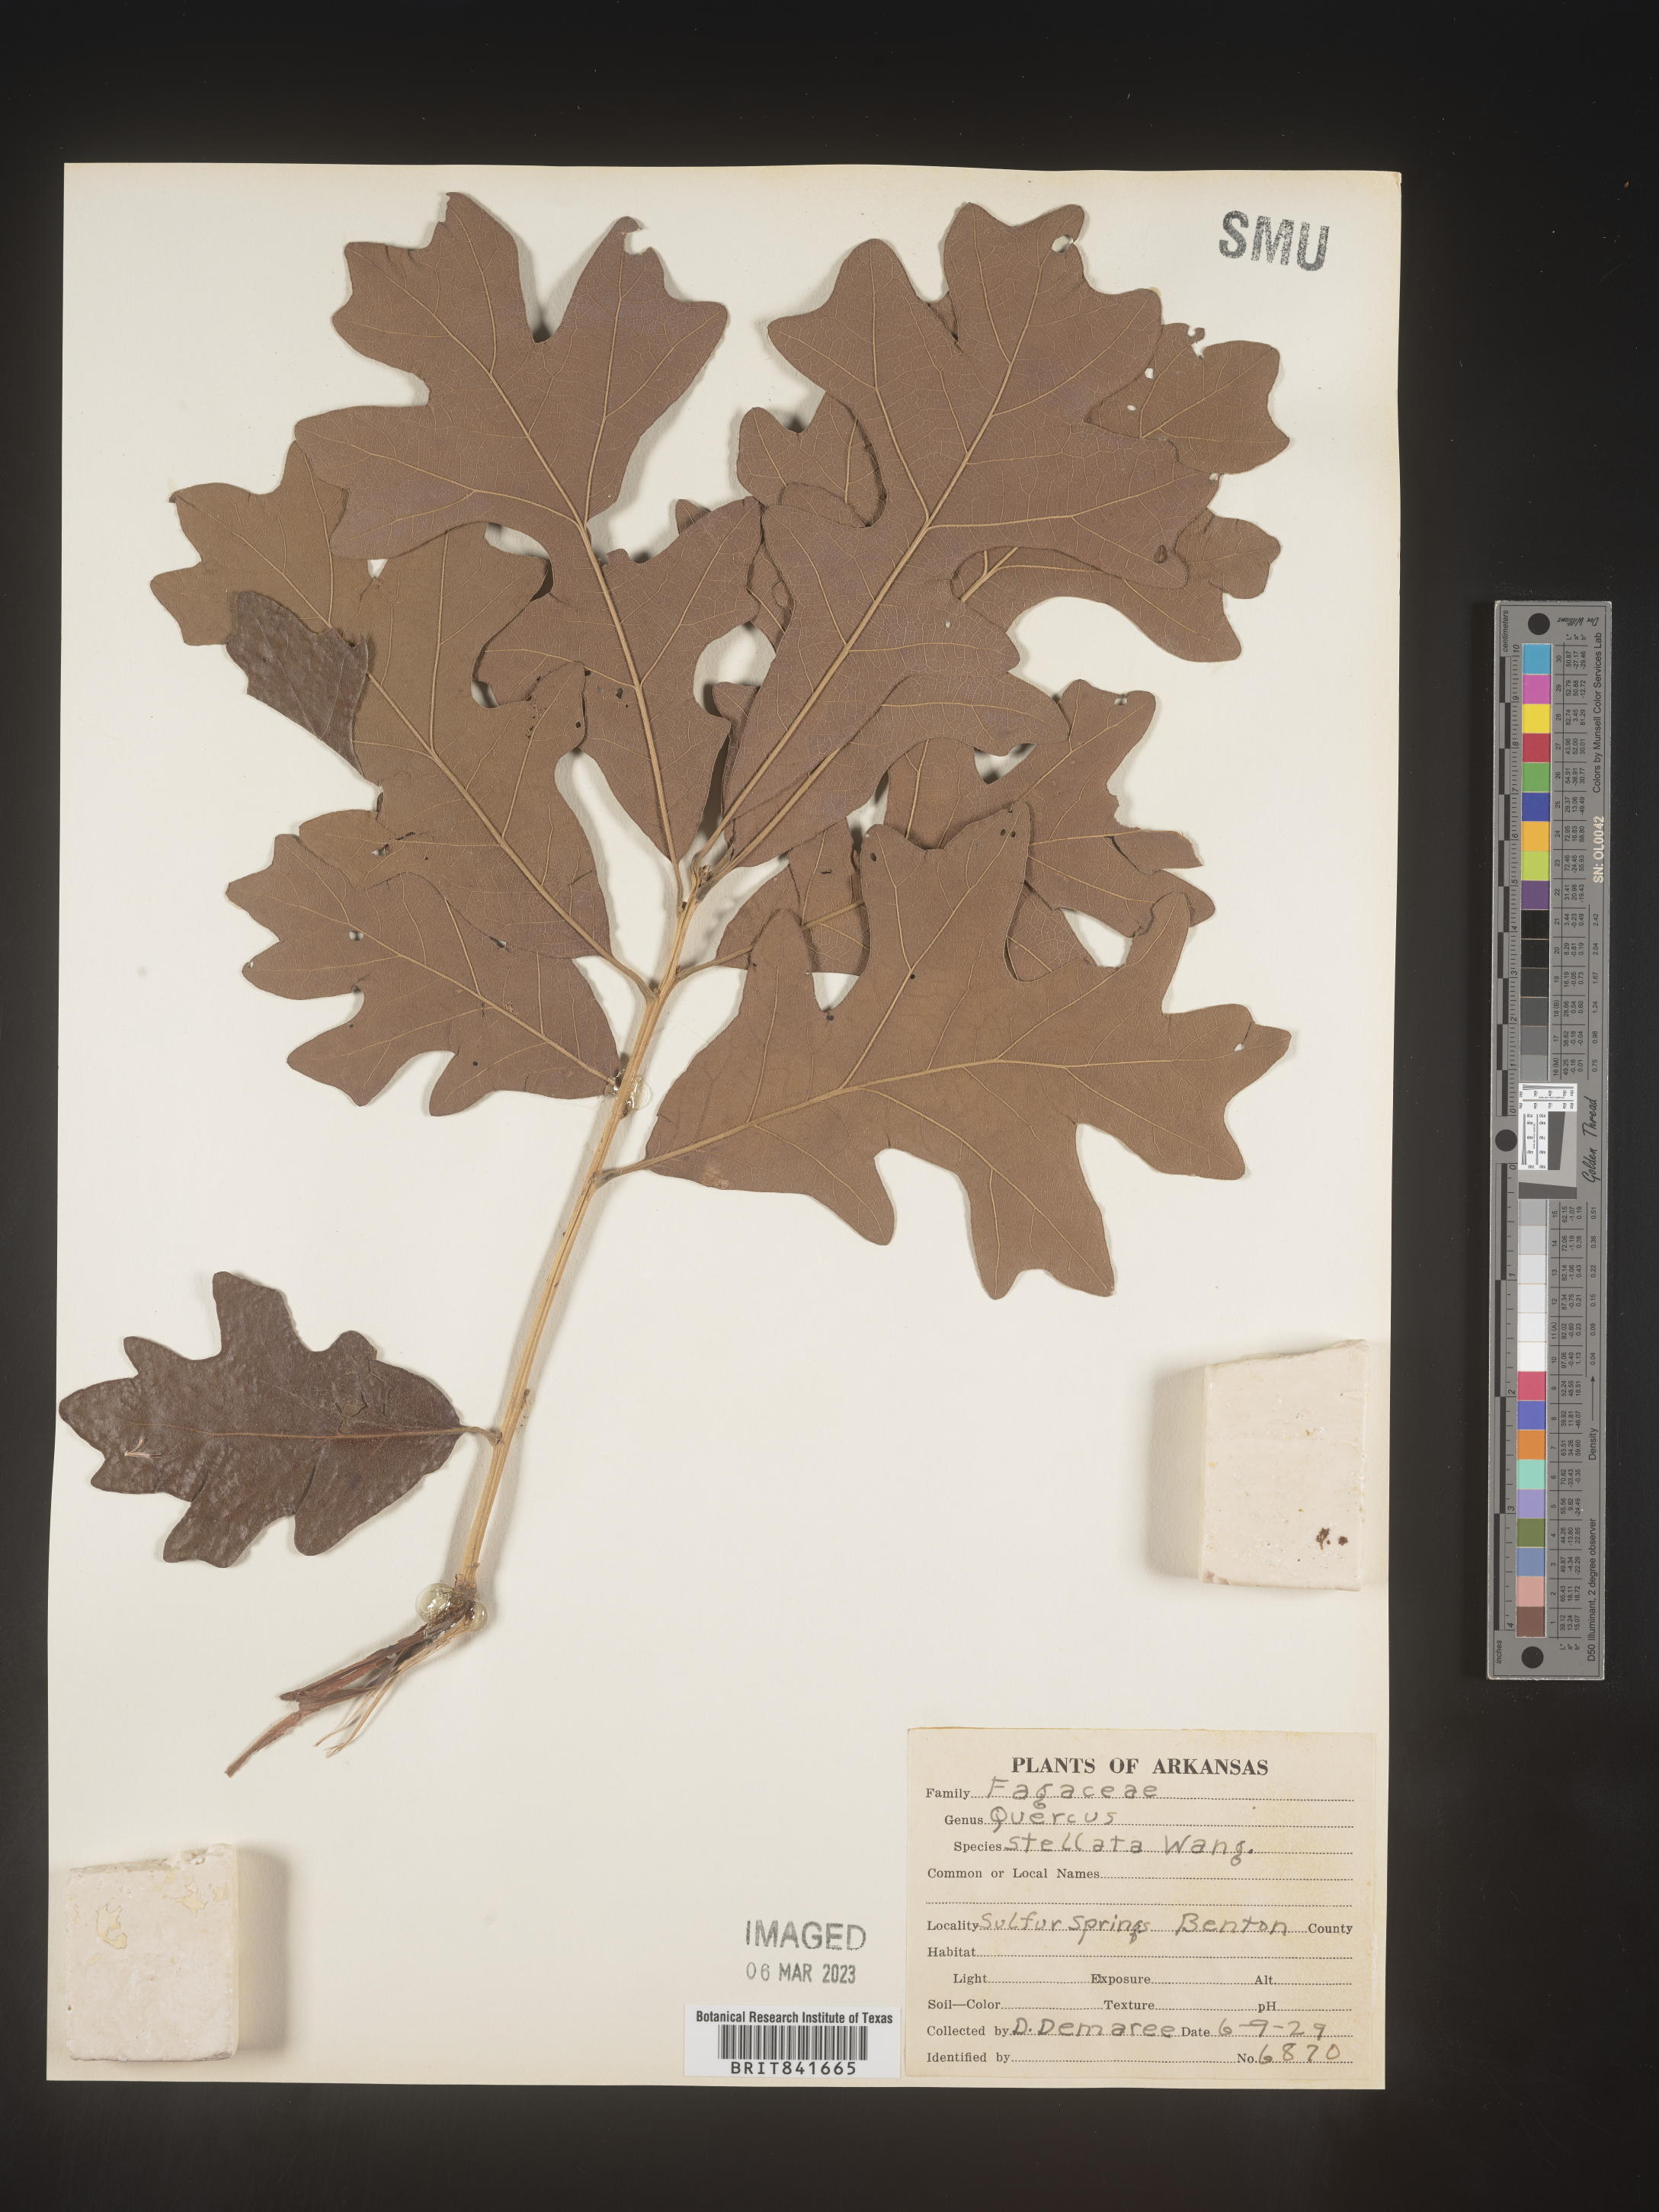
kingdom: Plantae
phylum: Tracheophyta
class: Magnoliopsida
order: Fagales
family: Fagaceae
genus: Quercus
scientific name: Quercus stellata
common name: Post oak
